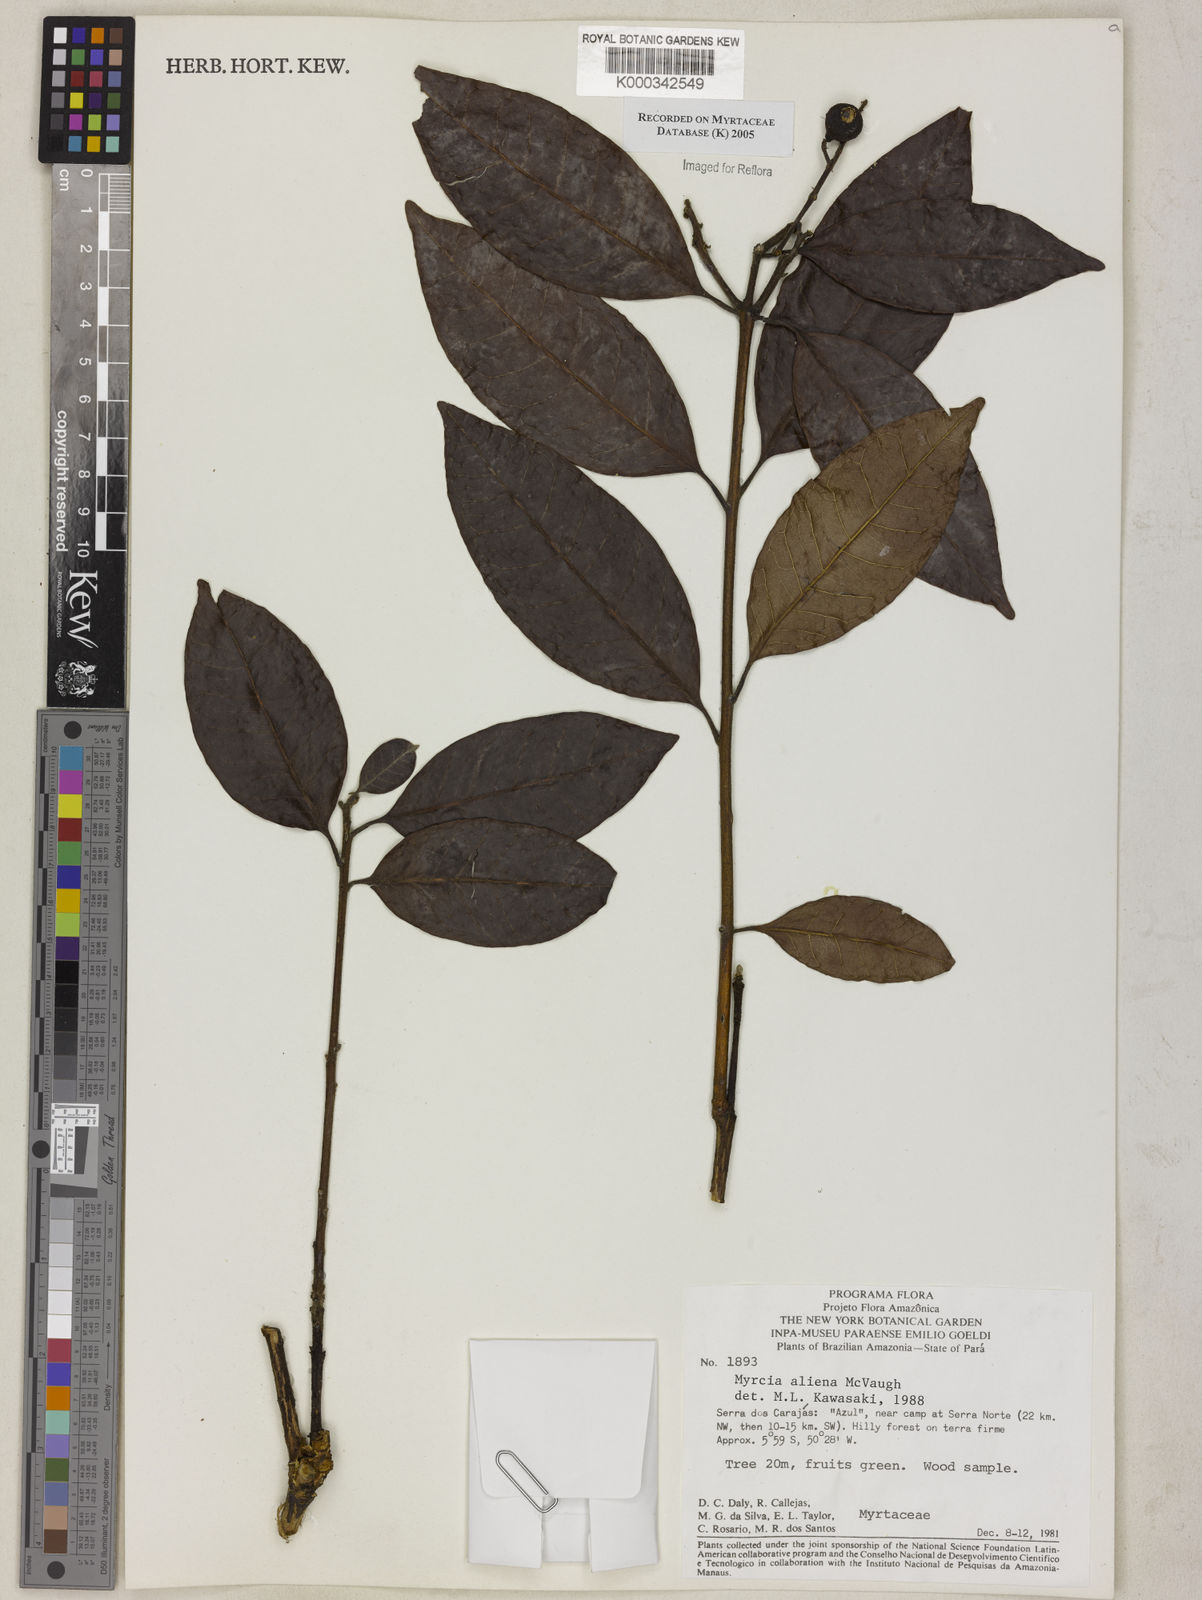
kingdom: Plantae
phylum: Tracheophyta
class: Magnoliopsida
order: Myrtales
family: Myrtaceae
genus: Myrcia
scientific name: Myrcia aliena
